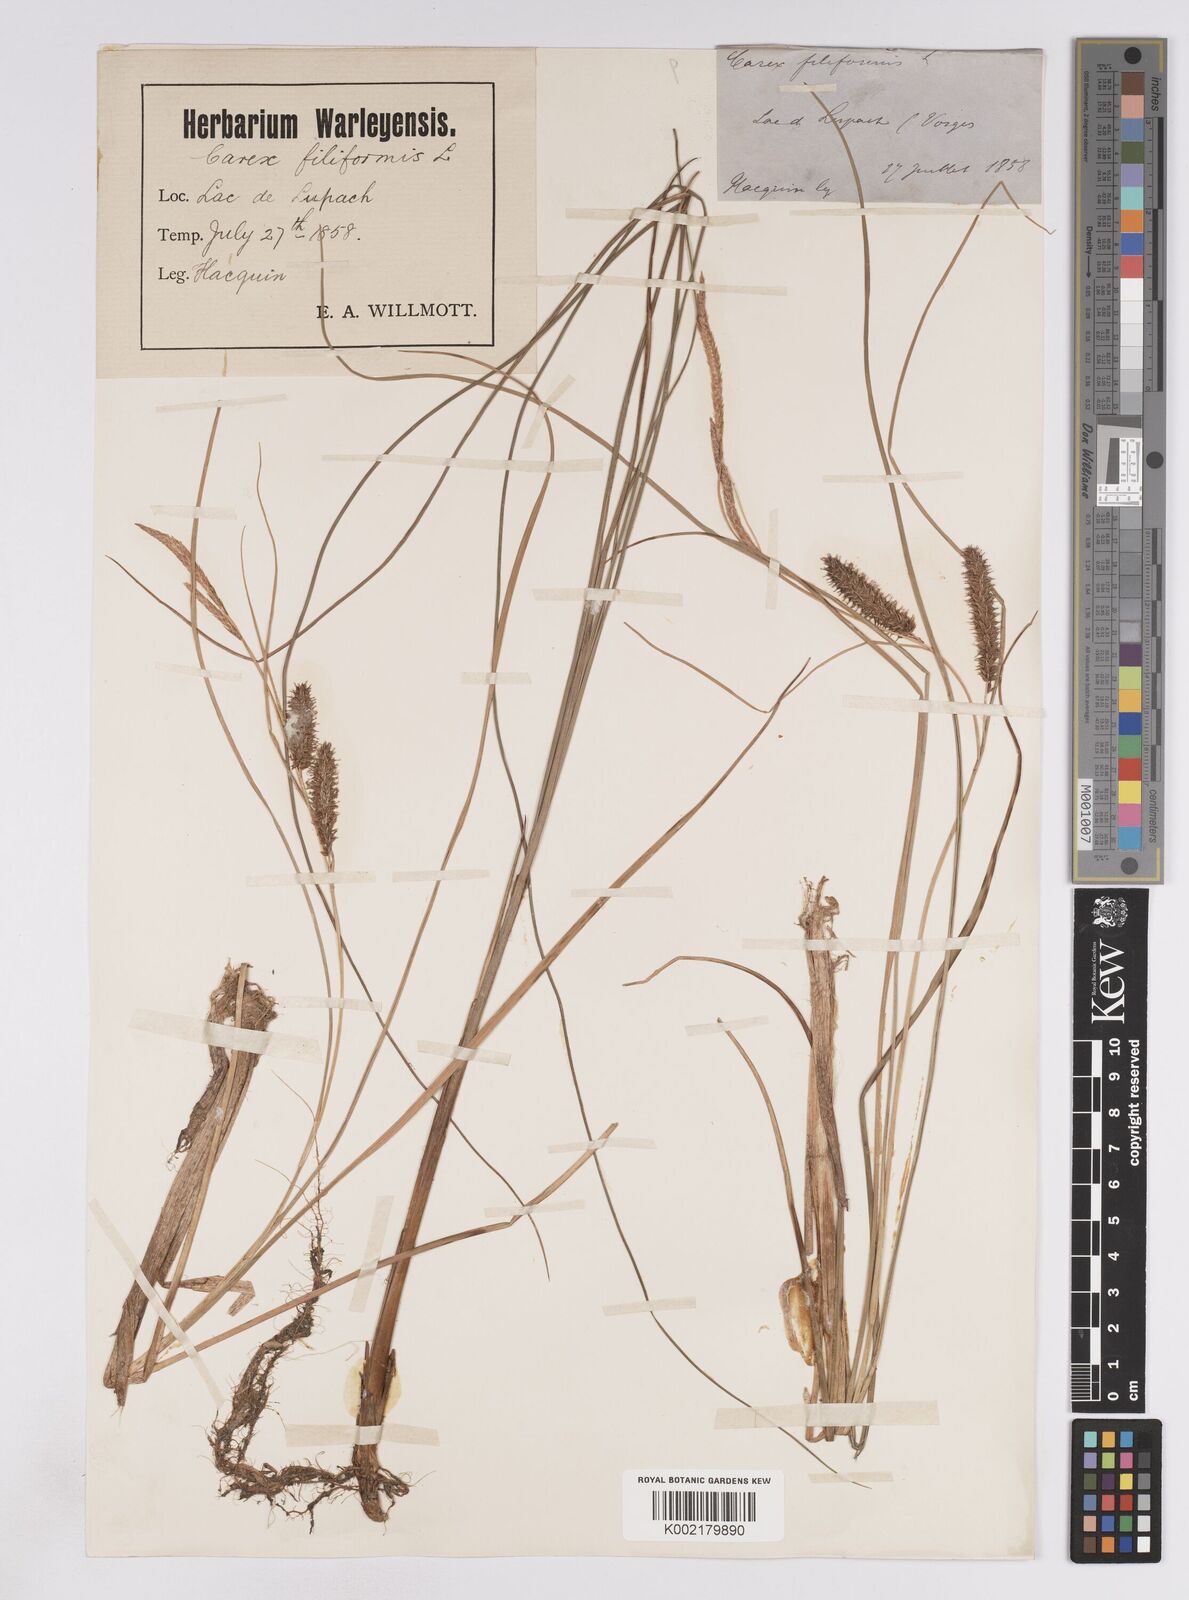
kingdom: Plantae
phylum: Tracheophyta
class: Liliopsida
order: Poales
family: Cyperaceae
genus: Carex
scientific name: Carex rostrata
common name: Bottle sedge
